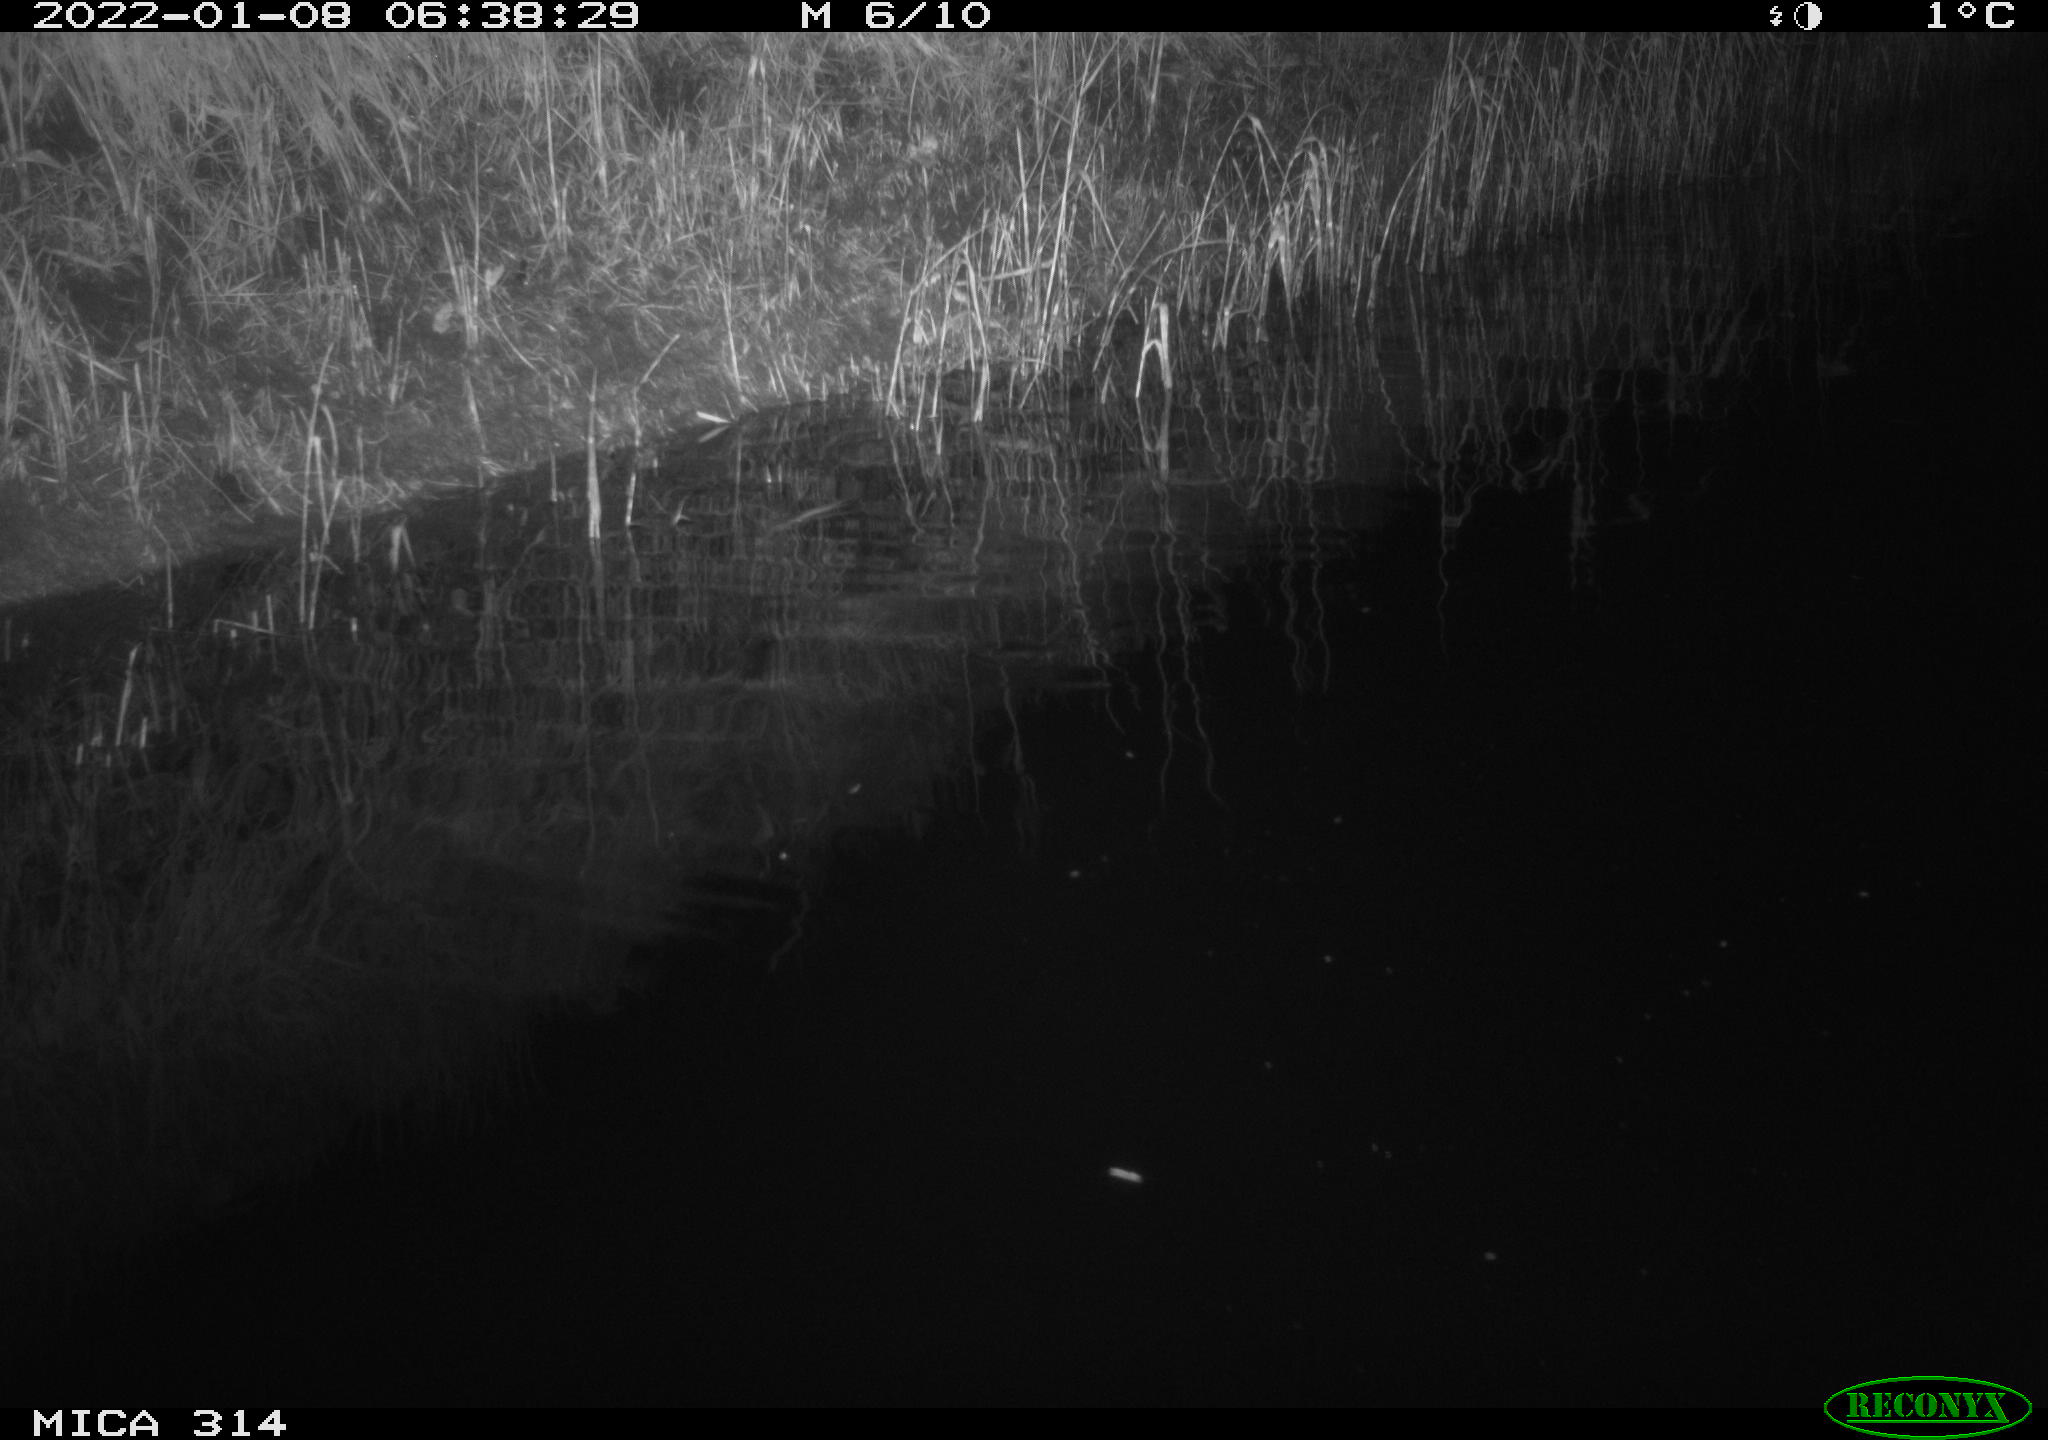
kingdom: Animalia
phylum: Chordata
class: Mammalia
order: Rodentia
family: Muridae
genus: Rattus
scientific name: Rattus norvegicus
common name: Brown rat
